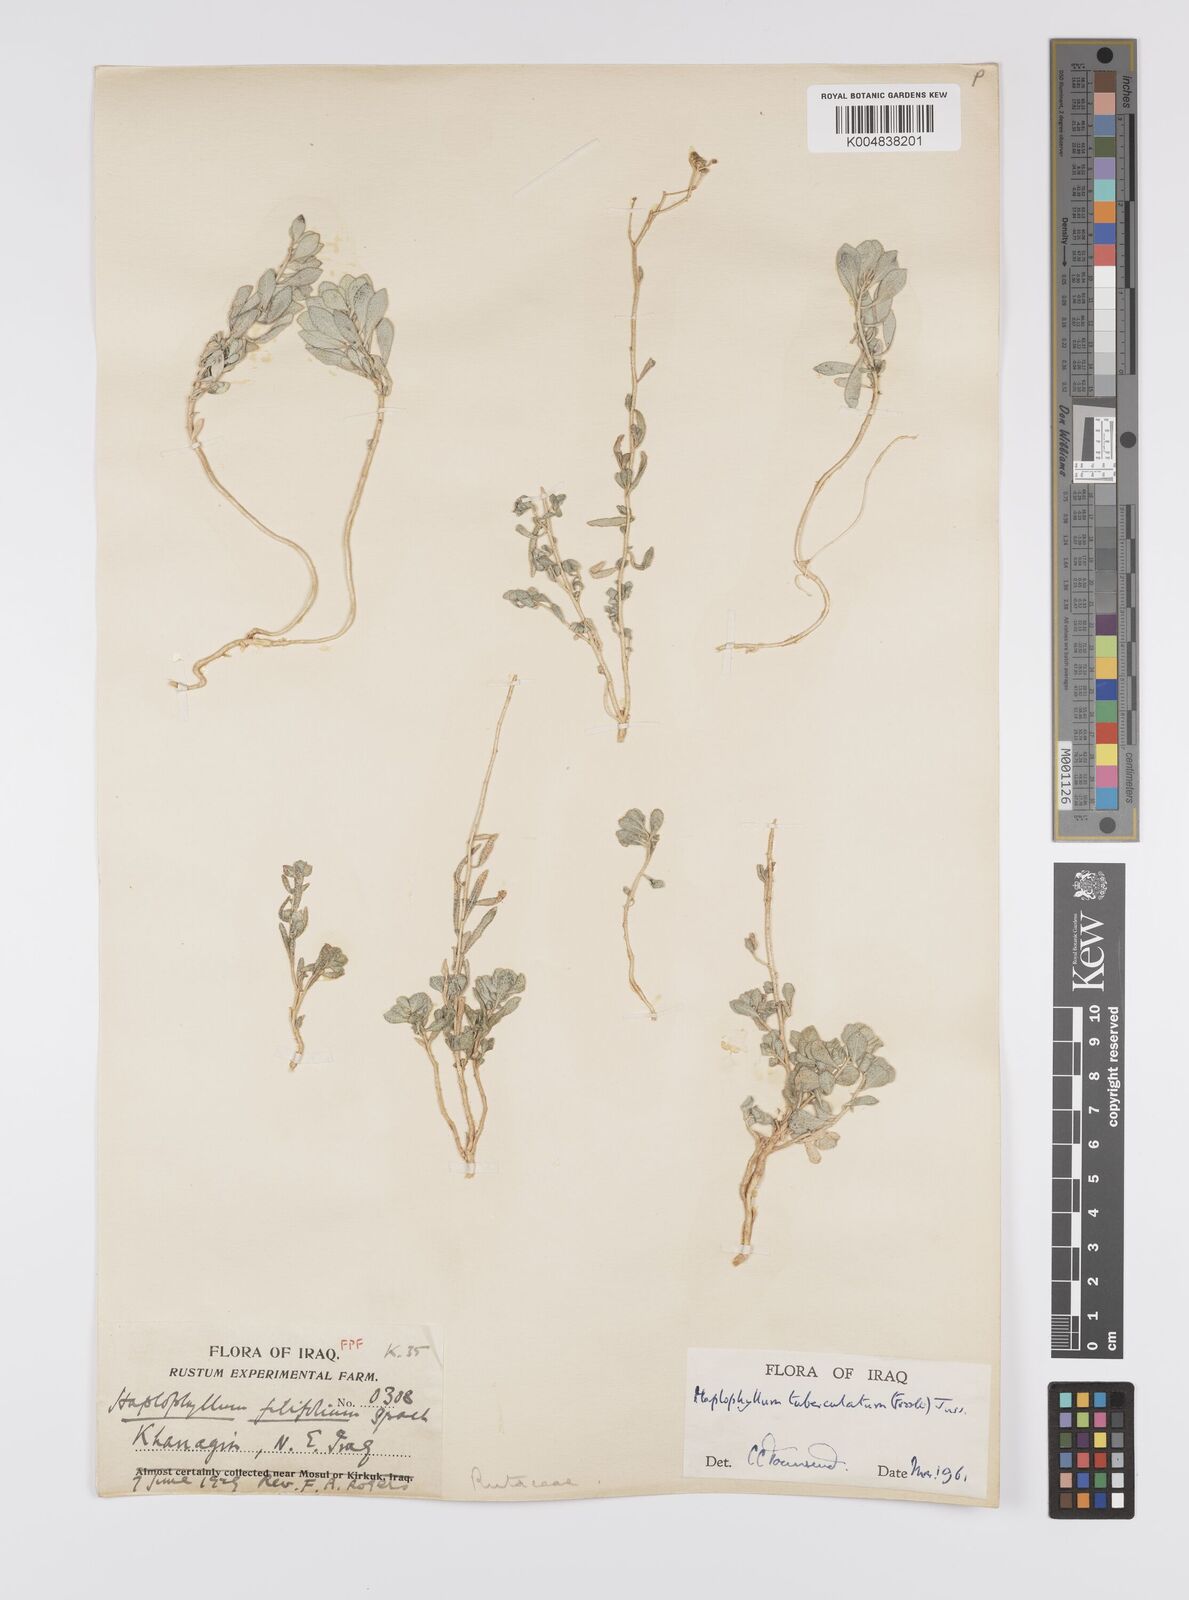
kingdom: Plantae
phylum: Tracheophyta
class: Magnoliopsida
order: Sapindales
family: Rutaceae
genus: Haplophyllum
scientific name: Haplophyllum tuberculatum
